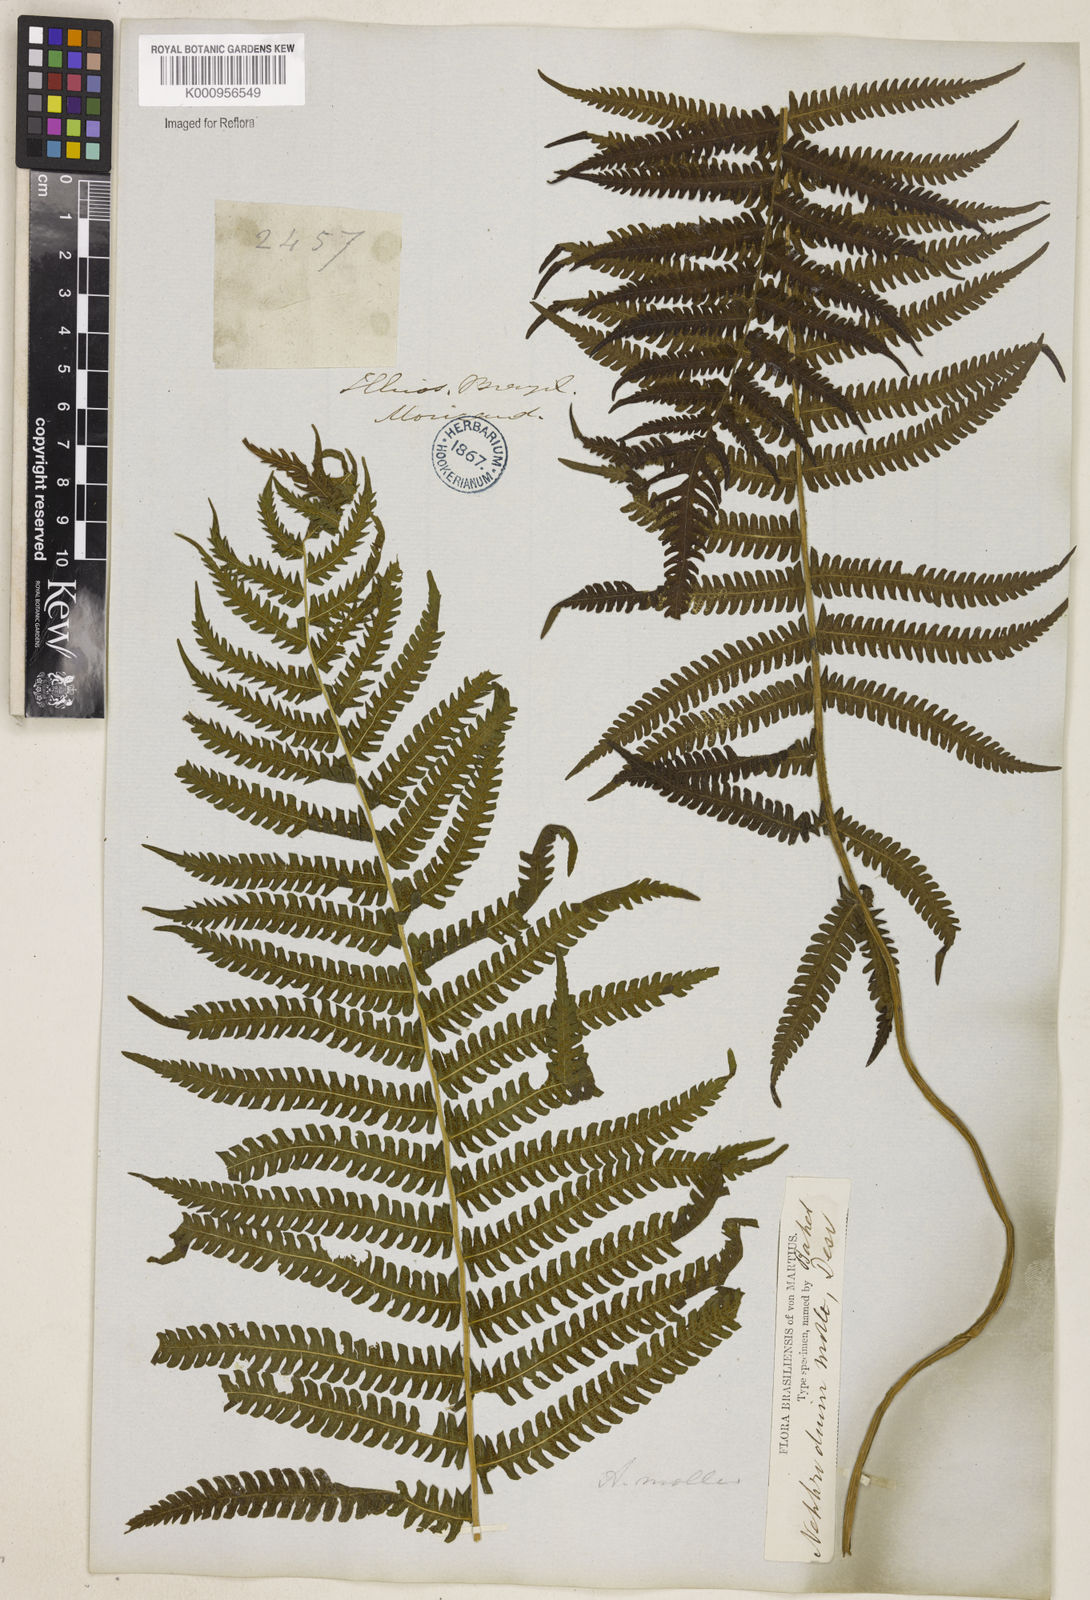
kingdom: Plantae
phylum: Tracheophyta
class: Polypodiopsida
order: Polypodiales
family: Thelypteridaceae
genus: Christella
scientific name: Christella hispidula
